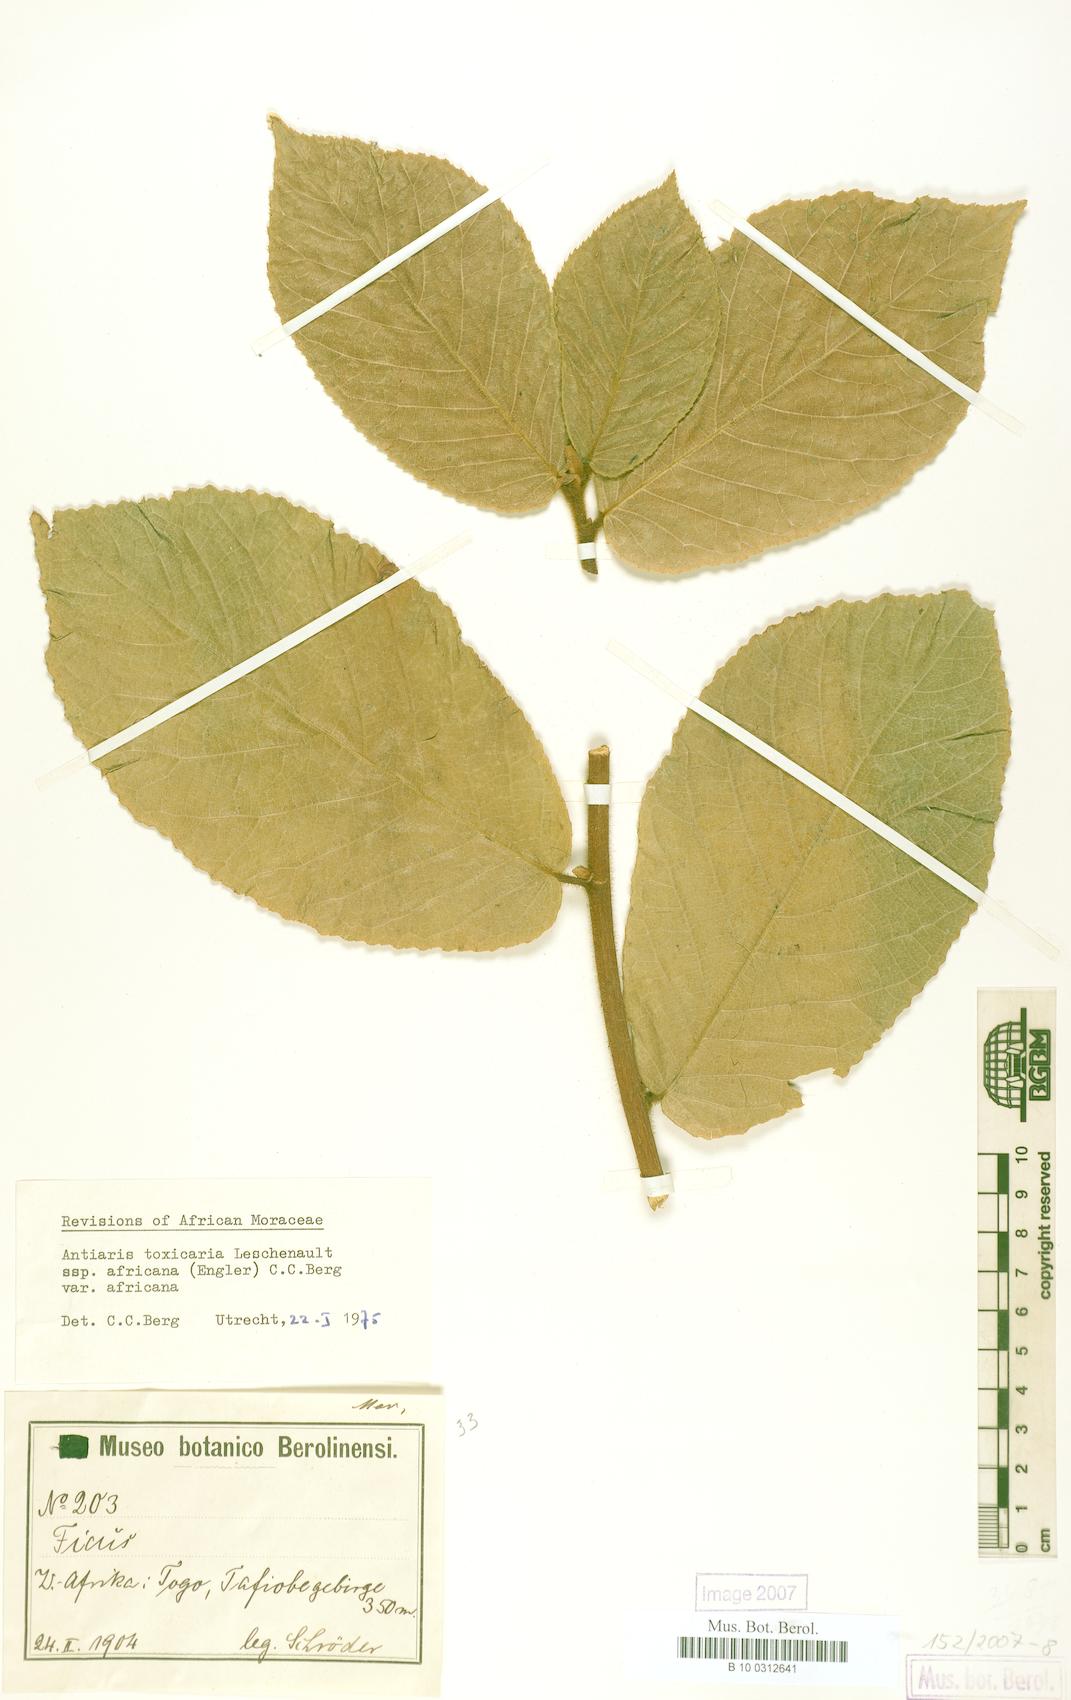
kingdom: Plantae
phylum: Tracheophyta
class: Magnoliopsida
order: Rosales
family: Moraceae
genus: Antiaris
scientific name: Antiaris toxicaria
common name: Sackingtree
